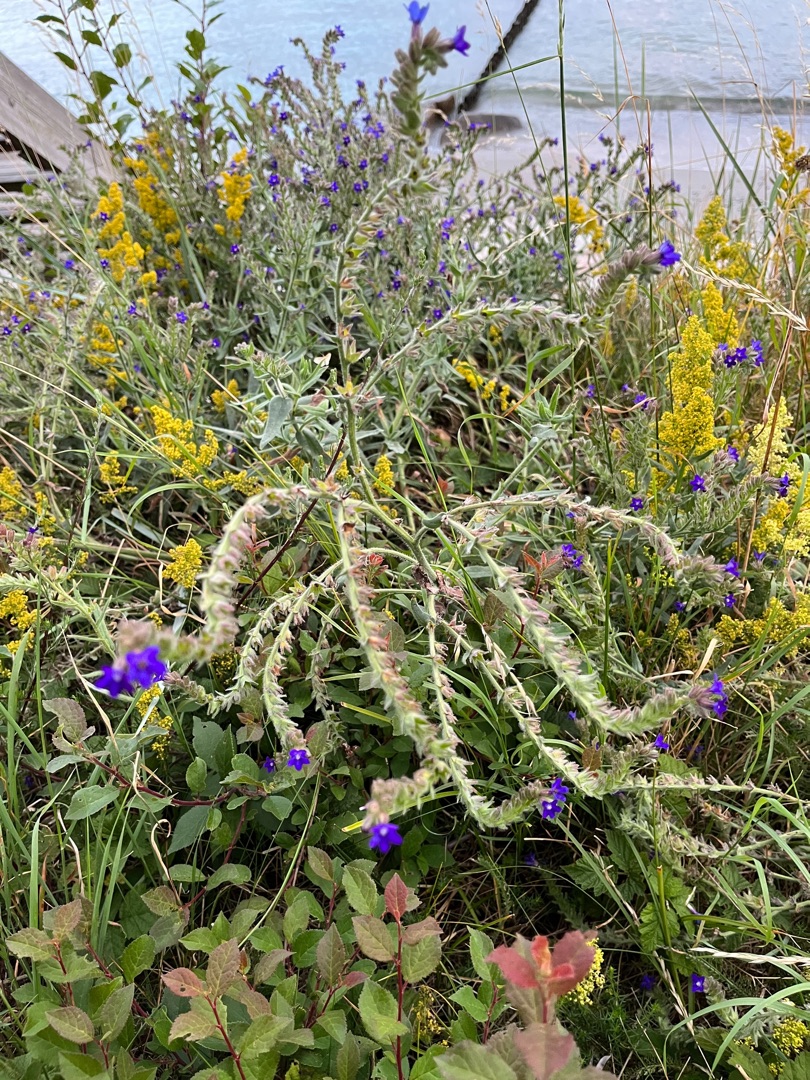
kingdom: Plantae
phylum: Tracheophyta
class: Magnoliopsida
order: Boraginales
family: Boraginaceae
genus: Anchusa
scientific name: Anchusa officinalis
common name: Læge-oksetunge
